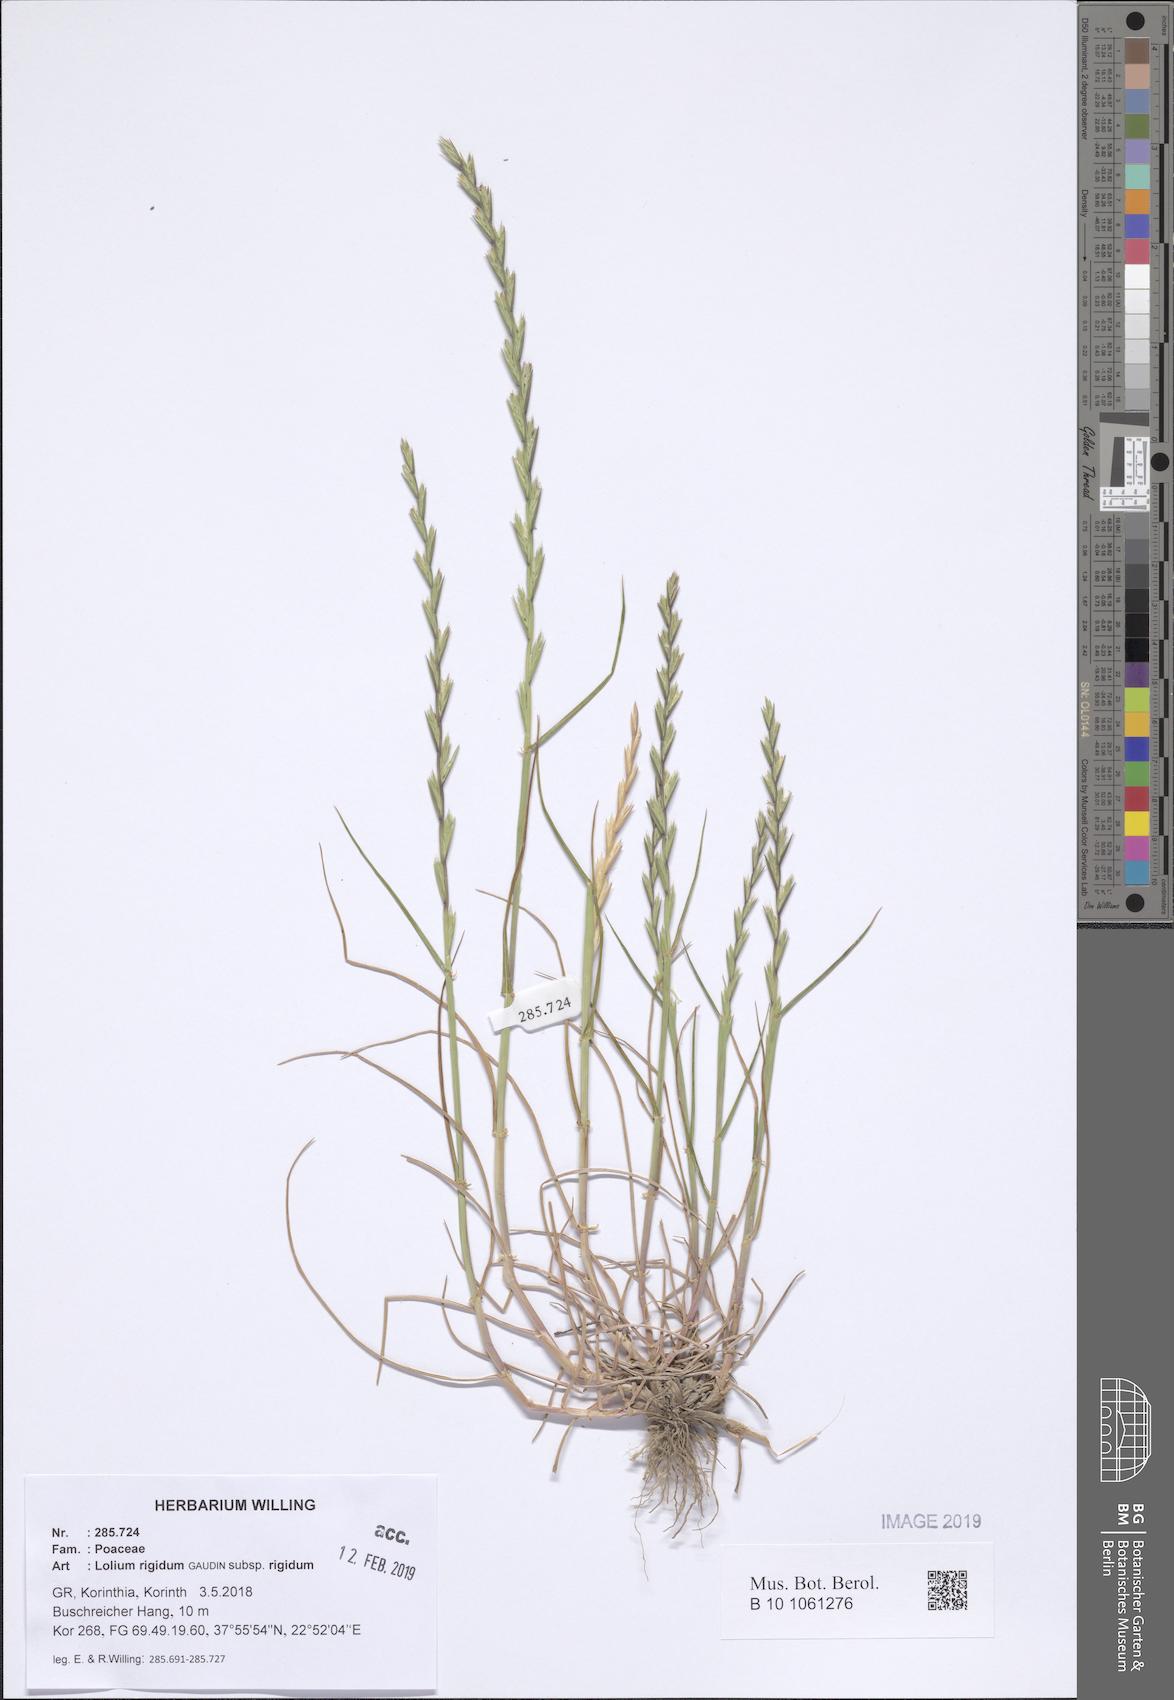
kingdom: Plantae
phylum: Tracheophyta
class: Liliopsida
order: Poales
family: Poaceae
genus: Lolium
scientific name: Lolium rigidum
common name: Wimmera ryegrass
